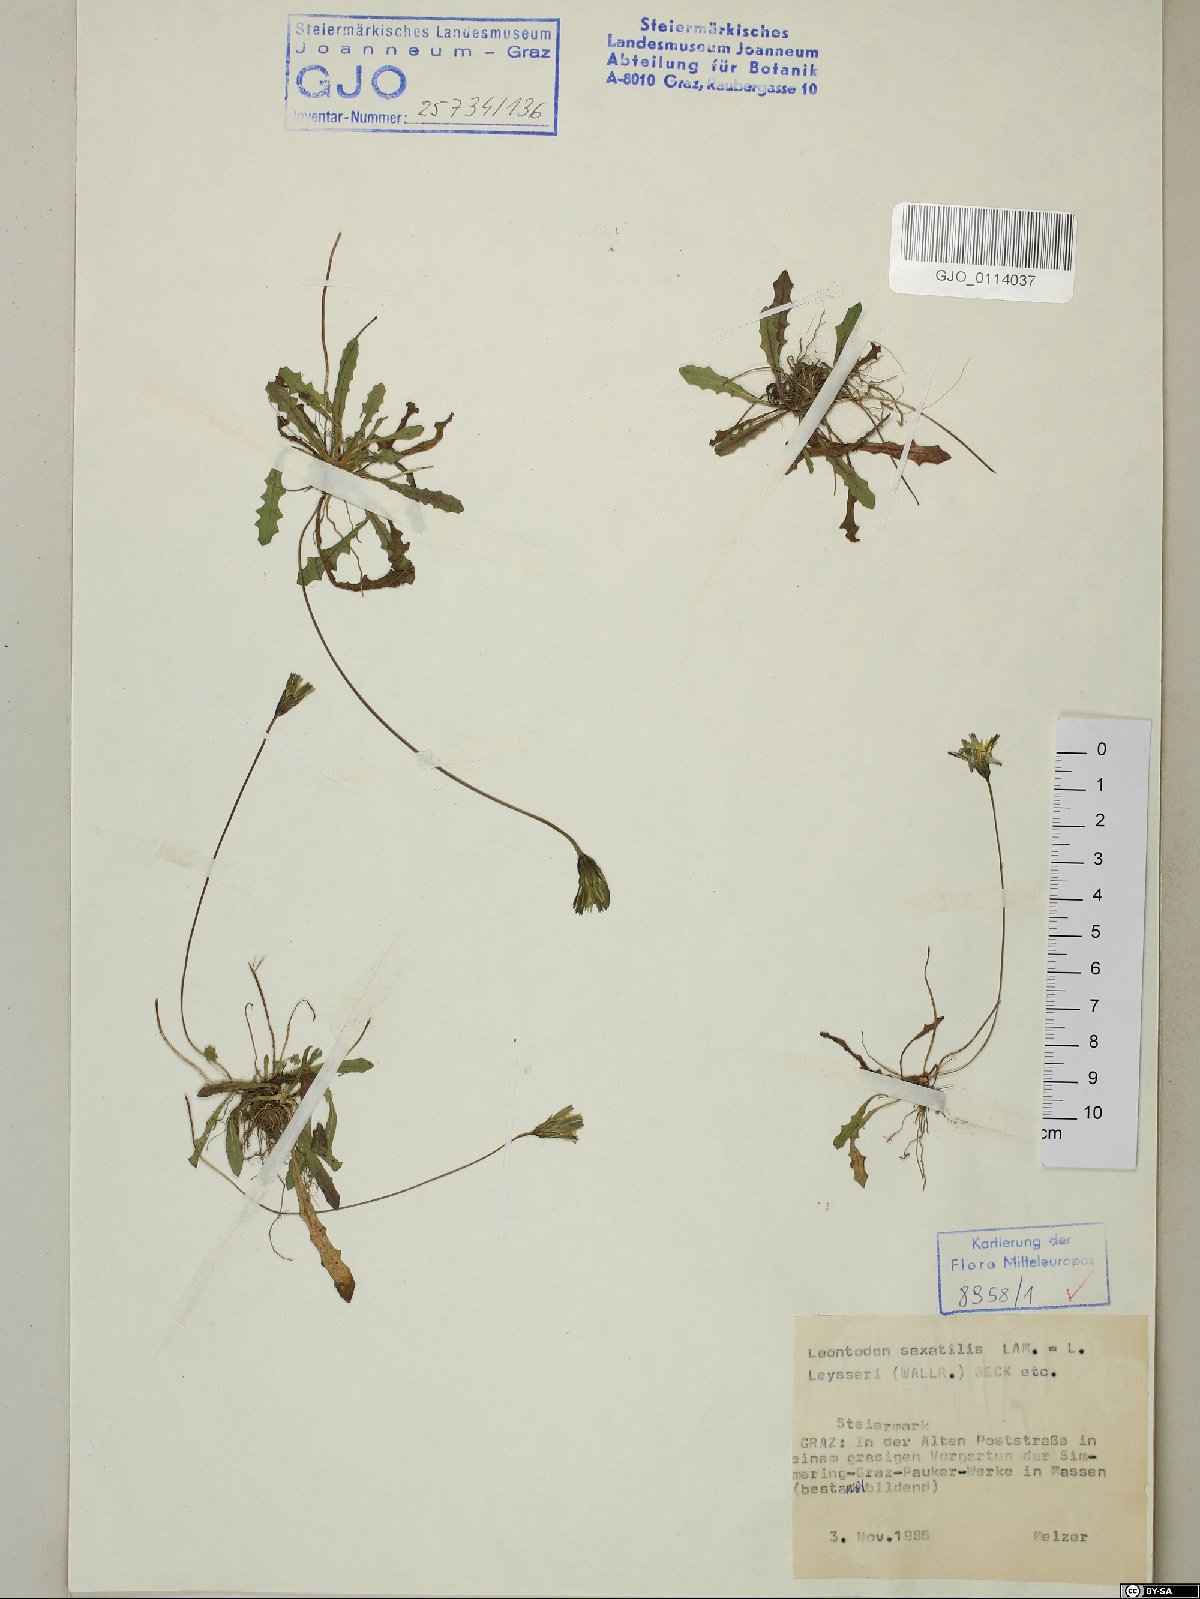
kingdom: Plantae
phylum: Tracheophyta
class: Magnoliopsida
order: Asterales
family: Asteraceae
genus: Thrincia
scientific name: Thrincia saxatilis
